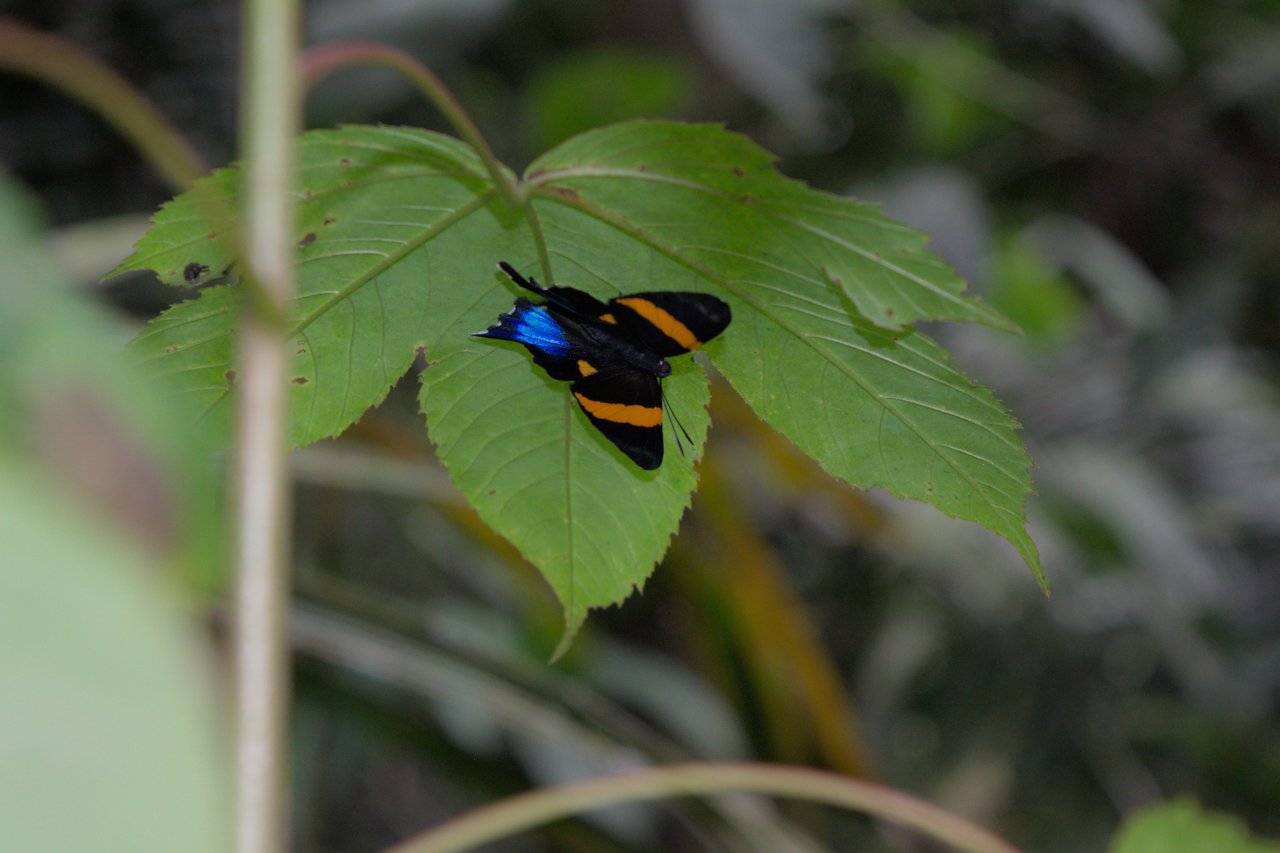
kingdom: Animalia
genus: Ancyluris
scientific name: Ancyluris inca
